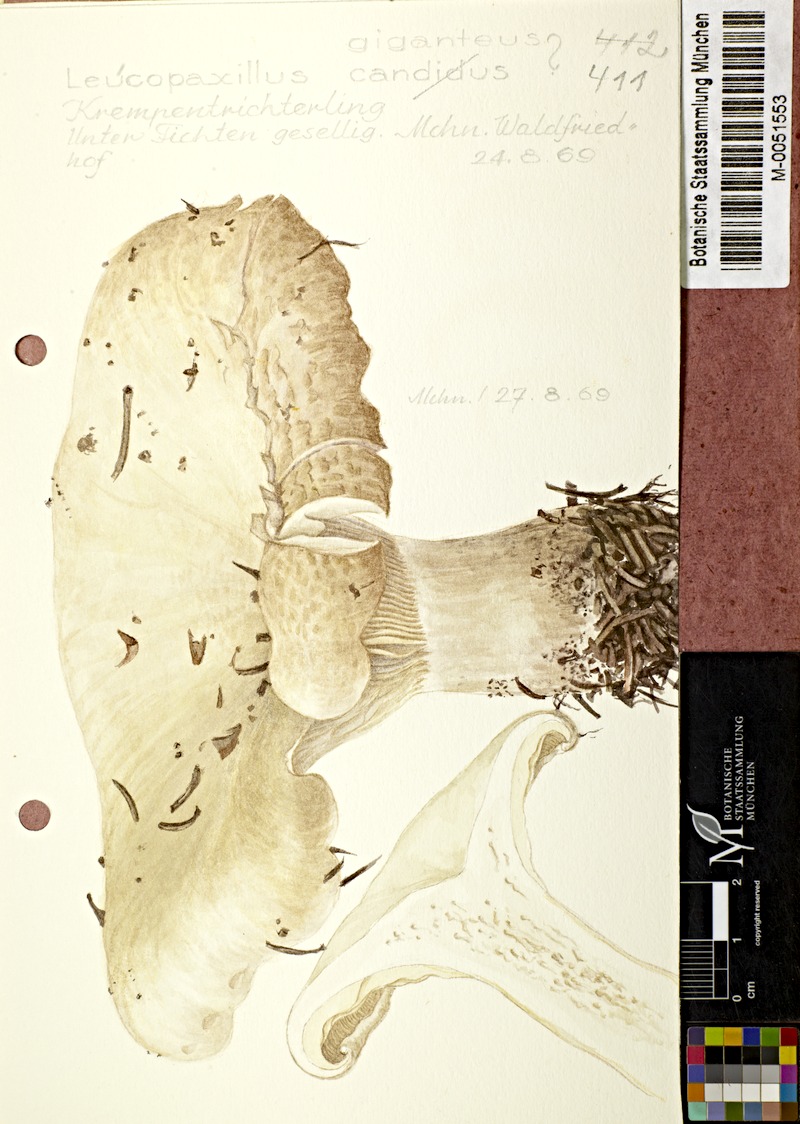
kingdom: Fungi
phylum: Basidiomycota
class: Agaricomycetes
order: Agaricales
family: Tricholomataceae
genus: Aspropaxillus
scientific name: Aspropaxillus giganteus
